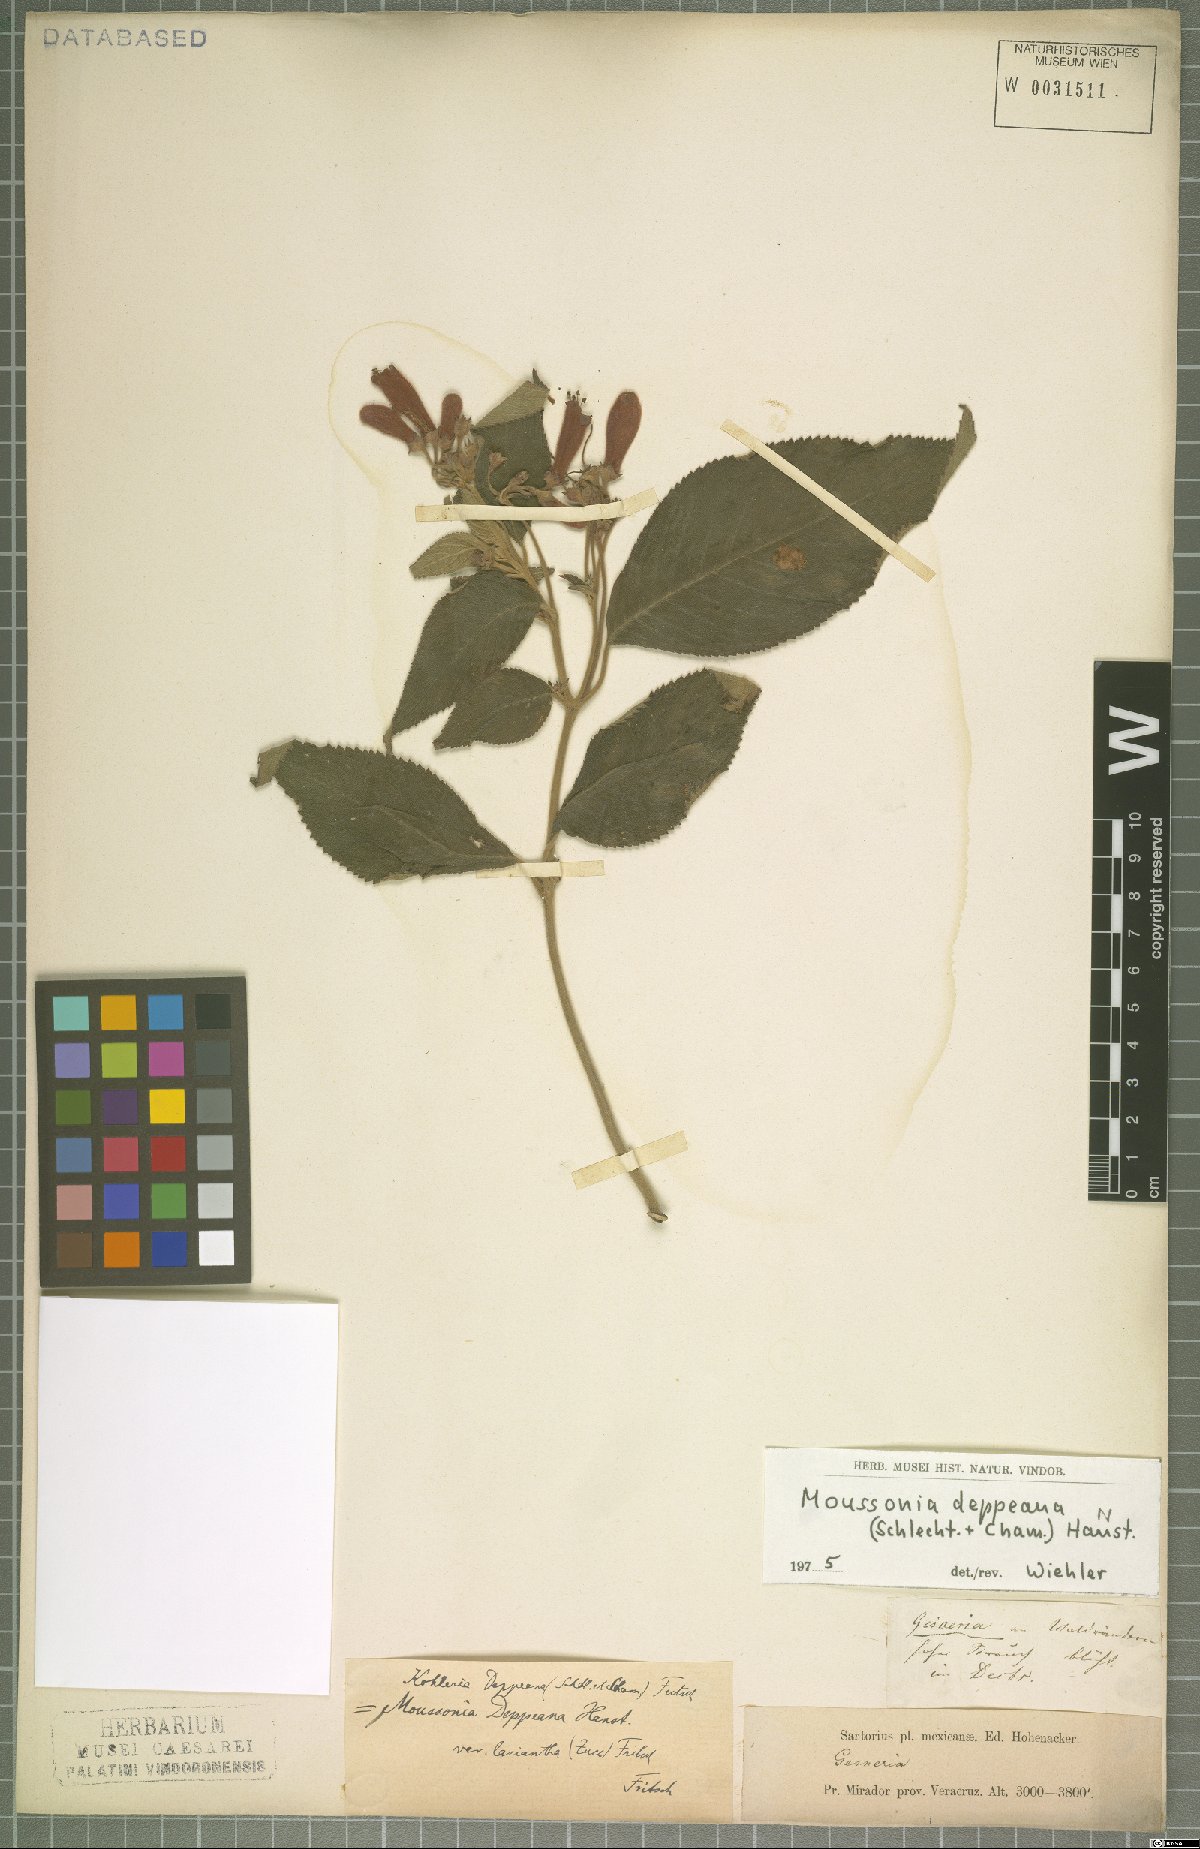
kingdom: Plantae
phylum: Tracheophyta
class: Magnoliopsida
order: Lamiales
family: Gesneriaceae
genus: Moussonia
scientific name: Moussonia deppeana
